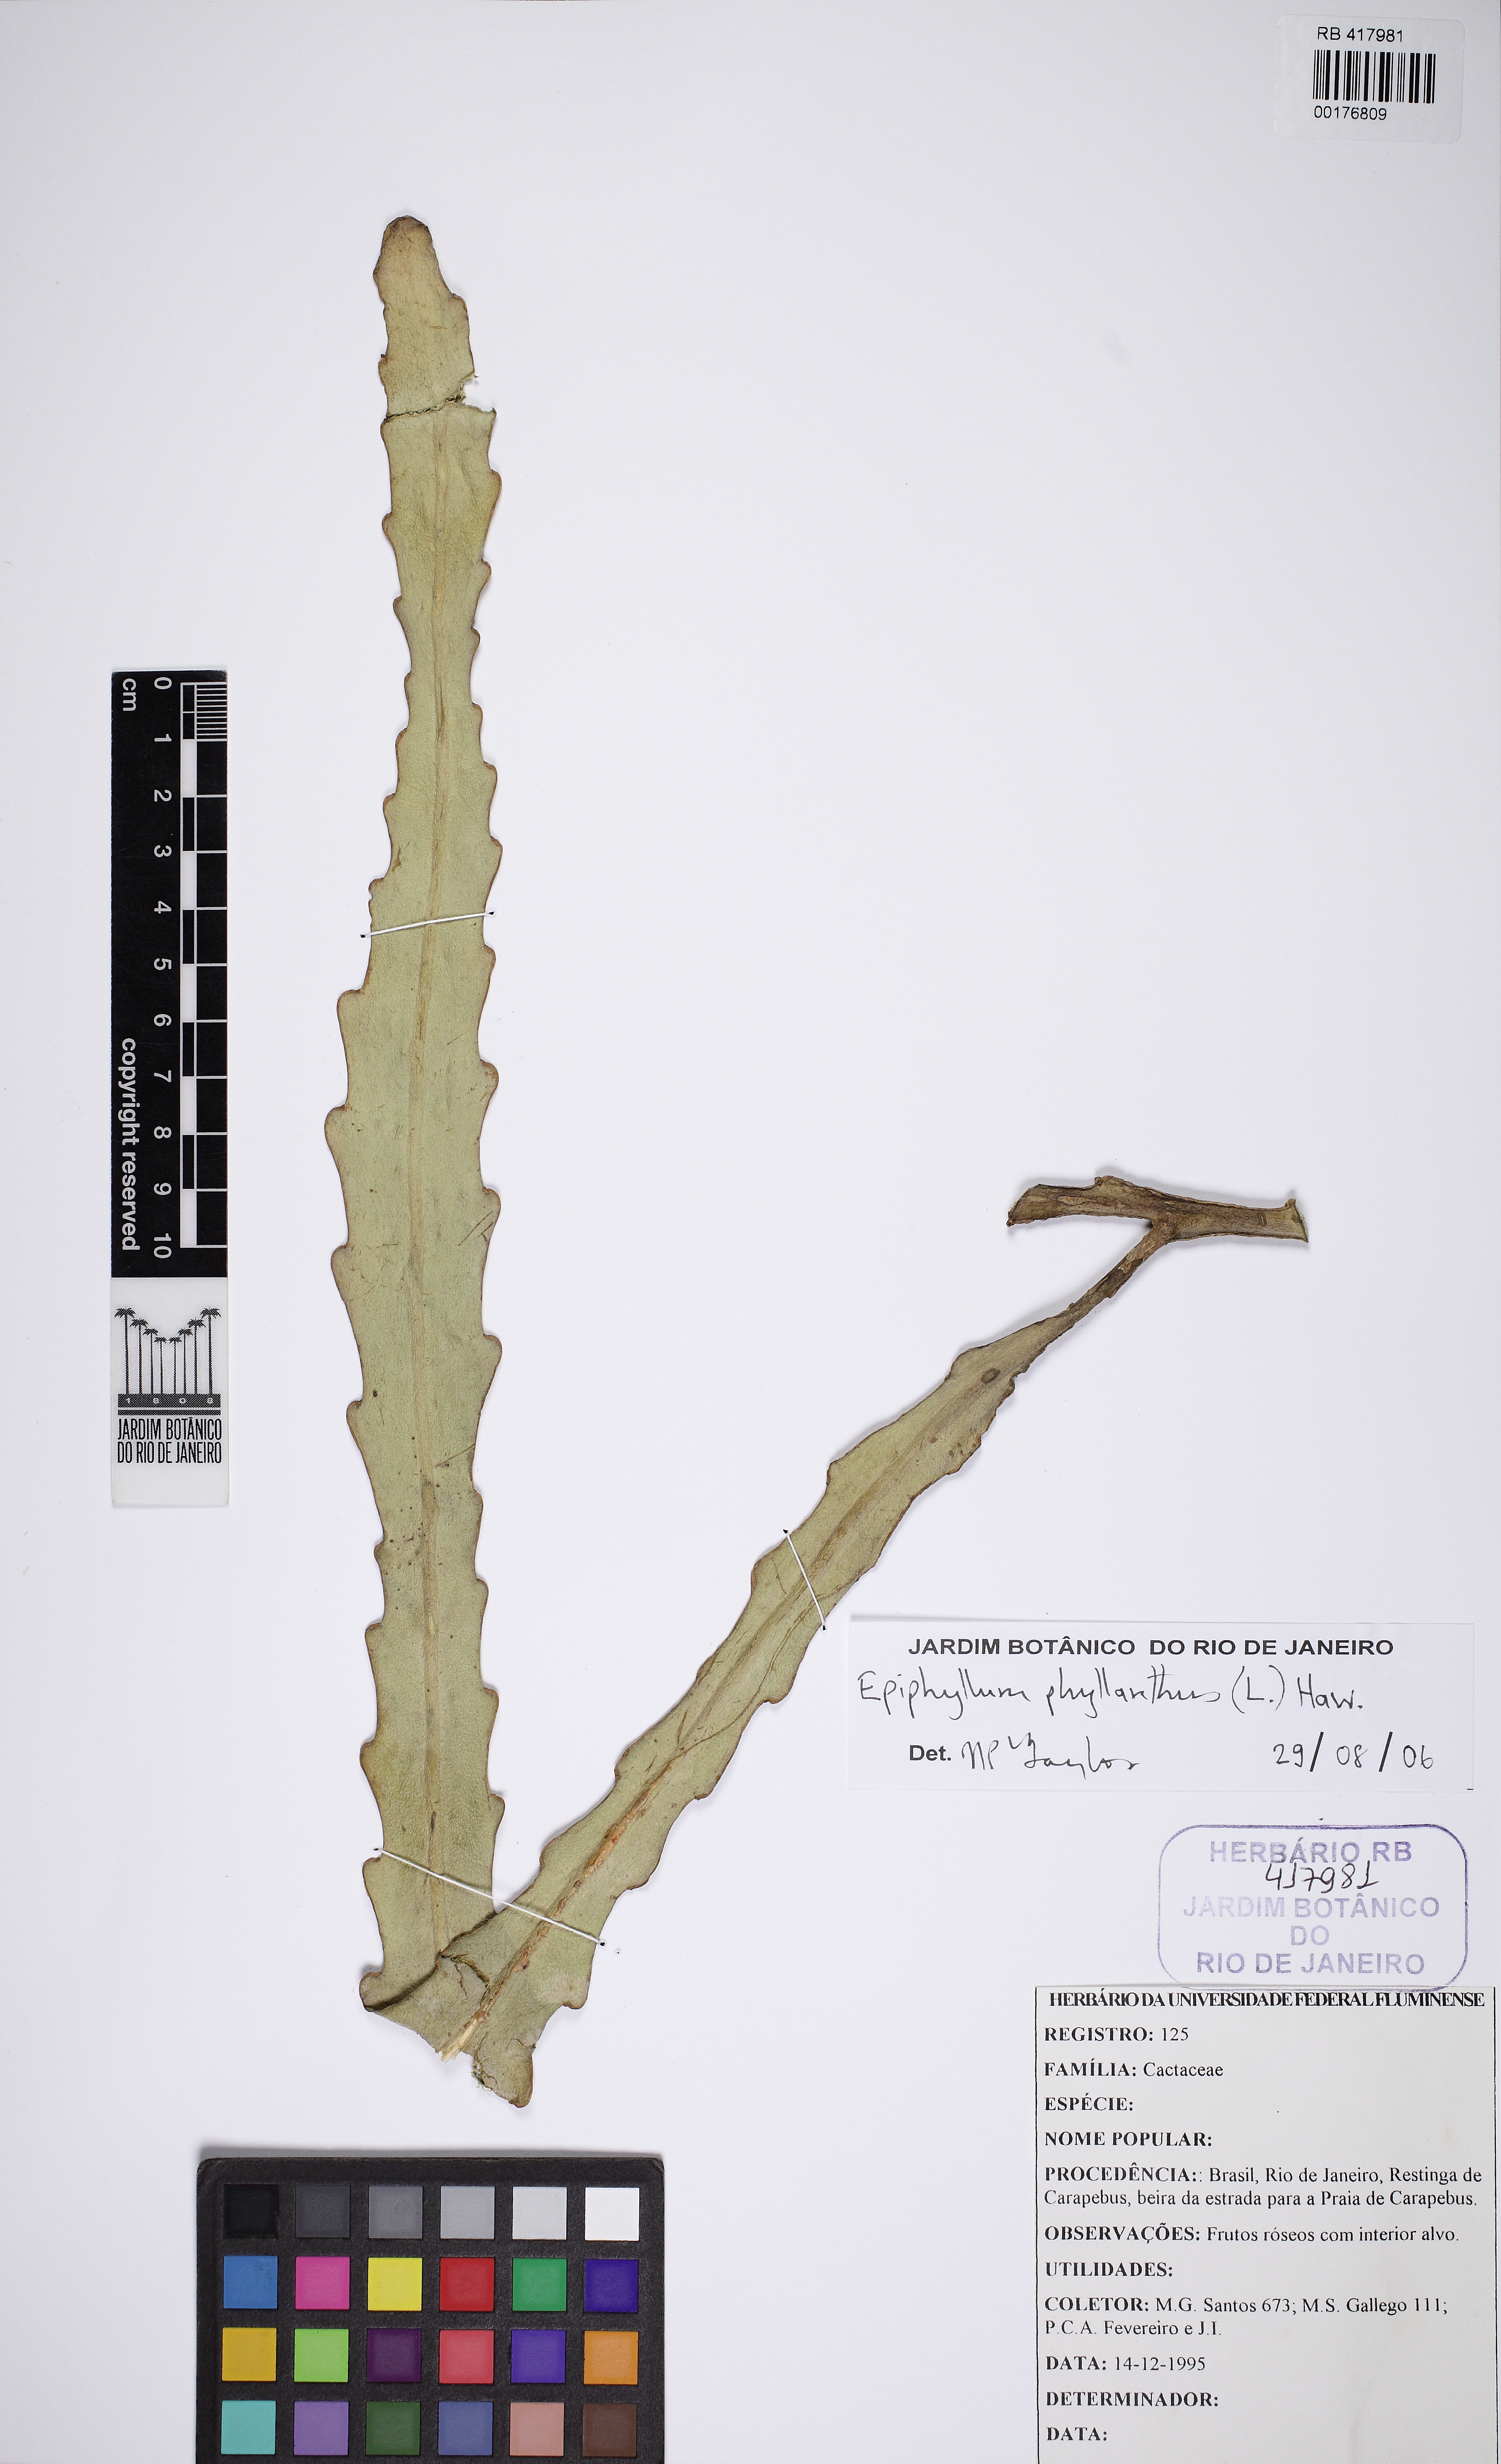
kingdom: Plantae
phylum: Tracheophyta
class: Magnoliopsida
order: Caryophyllales
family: Cactaceae
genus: Epiphyllum
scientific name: Epiphyllum phyllanthus
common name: Climbing cactus
